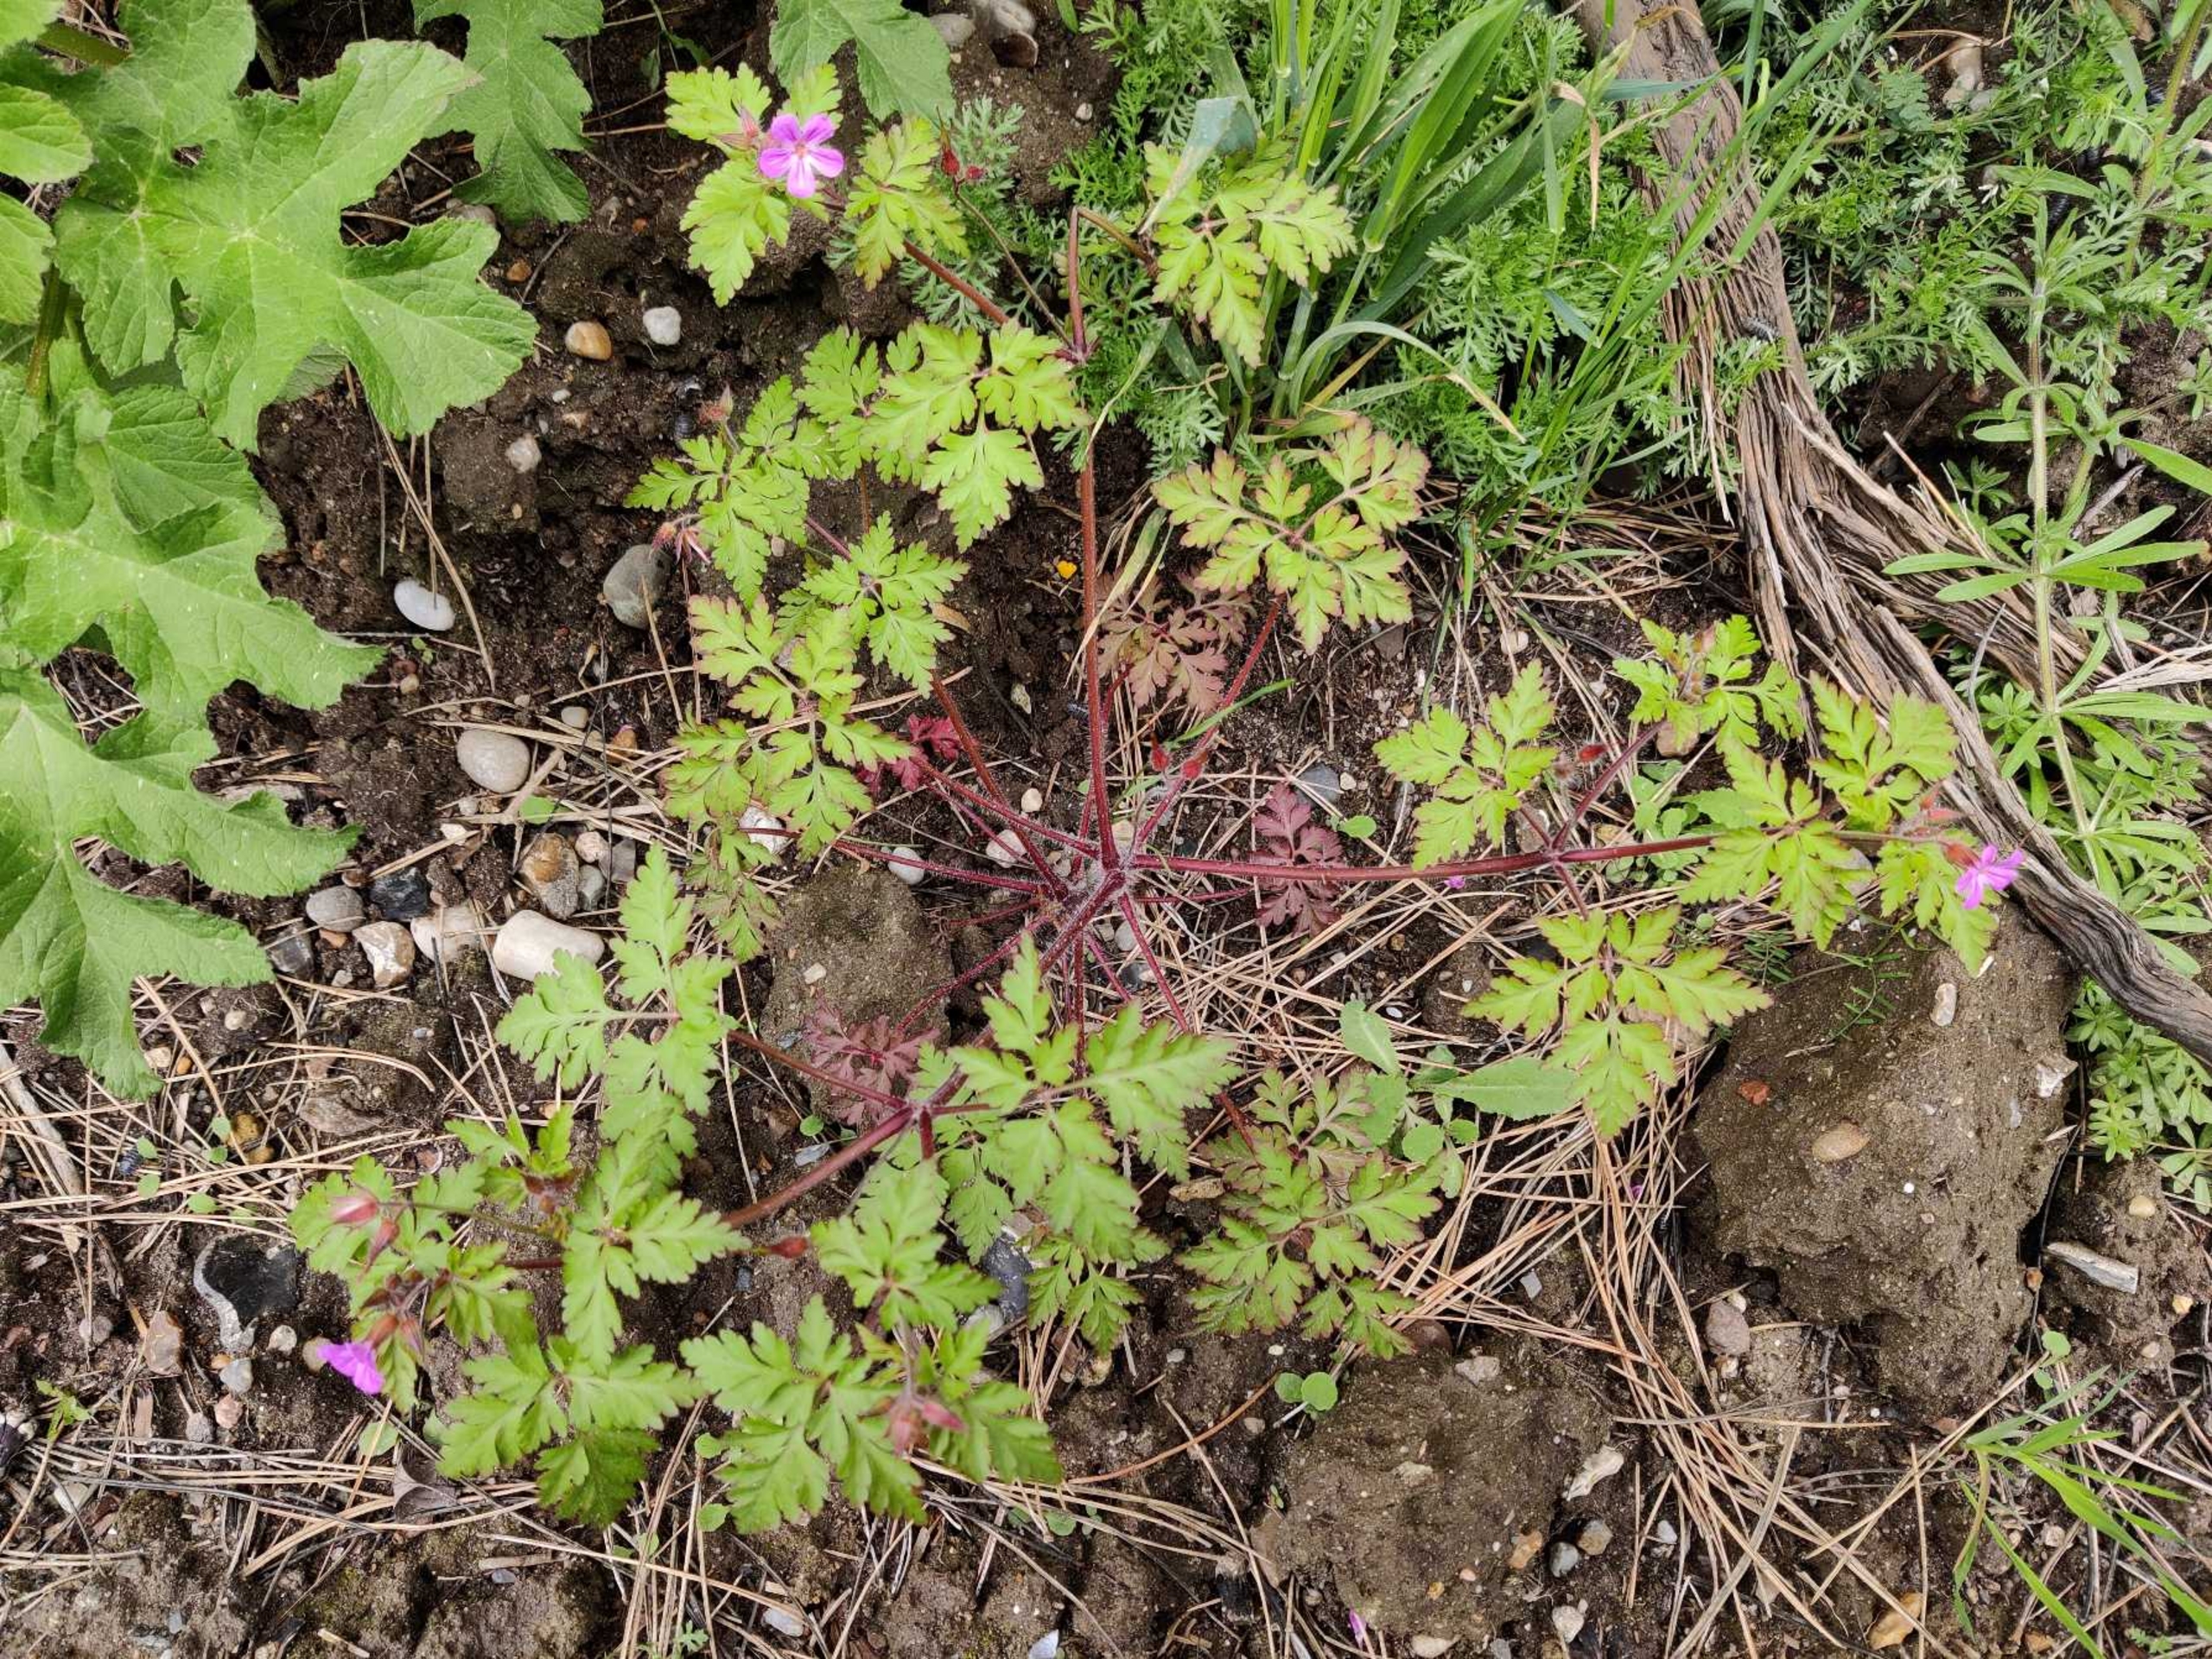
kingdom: Plantae
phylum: Tracheophyta
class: Magnoliopsida
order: Geraniales
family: Geraniaceae
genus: Geranium
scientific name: Geranium robertianum
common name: Stinkende storkenæb
